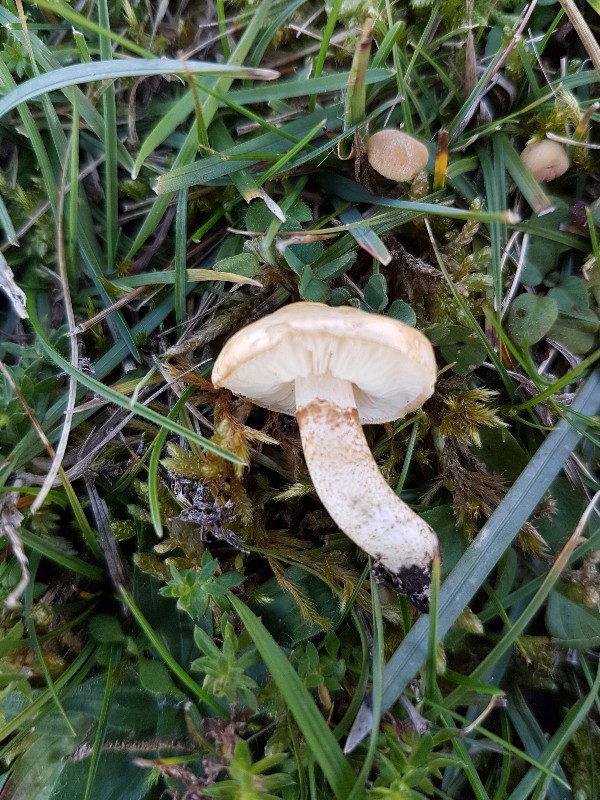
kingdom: Fungi
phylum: Basidiomycota
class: Agaricomycetes
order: Agaricales
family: Agaricaceae
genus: Chamaemyces
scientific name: Chamaemyces fracidus
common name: dråbehat
